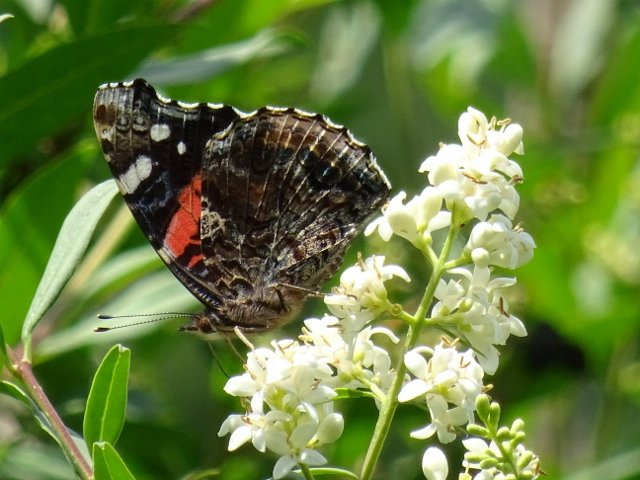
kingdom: Animalia
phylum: Arthropoda
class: Insecta
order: Lepidoptera
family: Nymphalidae
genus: Vanessa
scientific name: Vanessa atalanta
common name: Red Admiral
